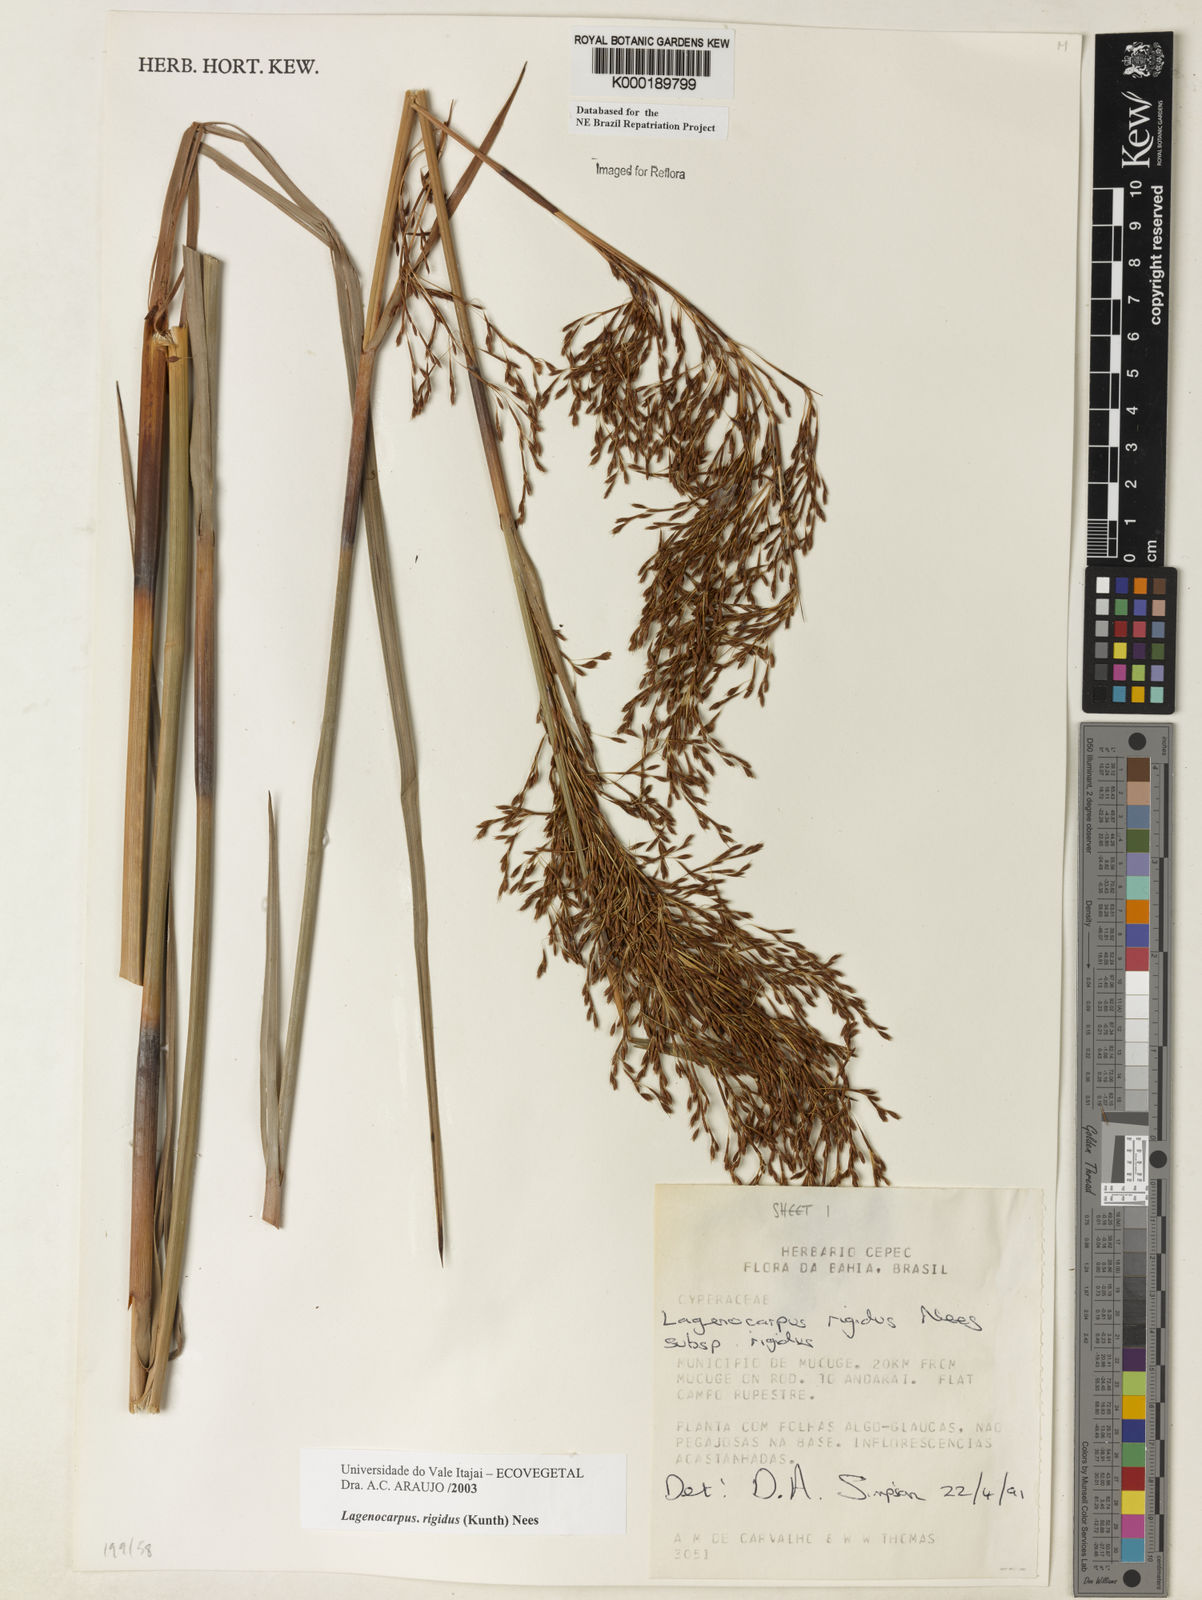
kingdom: Plantae
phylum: Tracheophyta
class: Liliopsida
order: Poales
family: Cyperaceae
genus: Lagenocarpus
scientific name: Lagenocarpus rigidus
